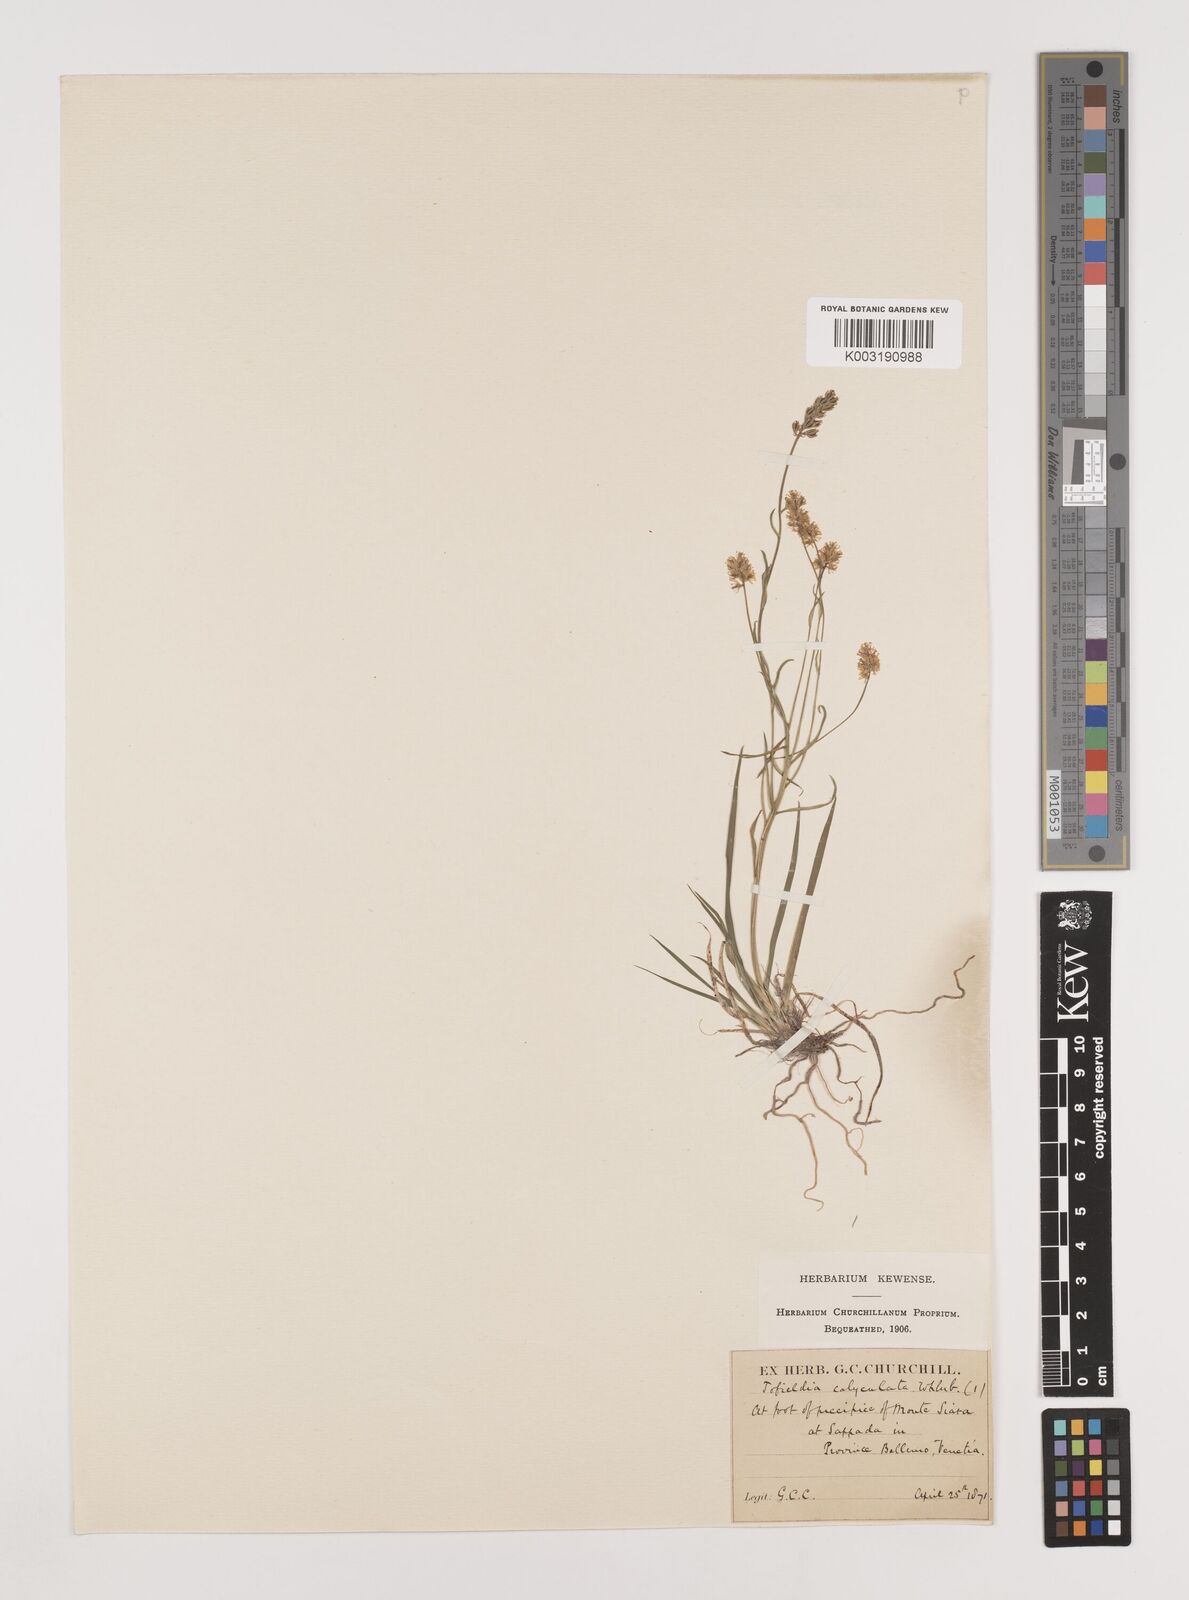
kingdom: Plantae
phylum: Tracheophyta
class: Liliopsida
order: Alismatales
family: Tofieldiaceae
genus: Tofieldia
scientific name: Tofieldia calyculata
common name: German-asphodel
